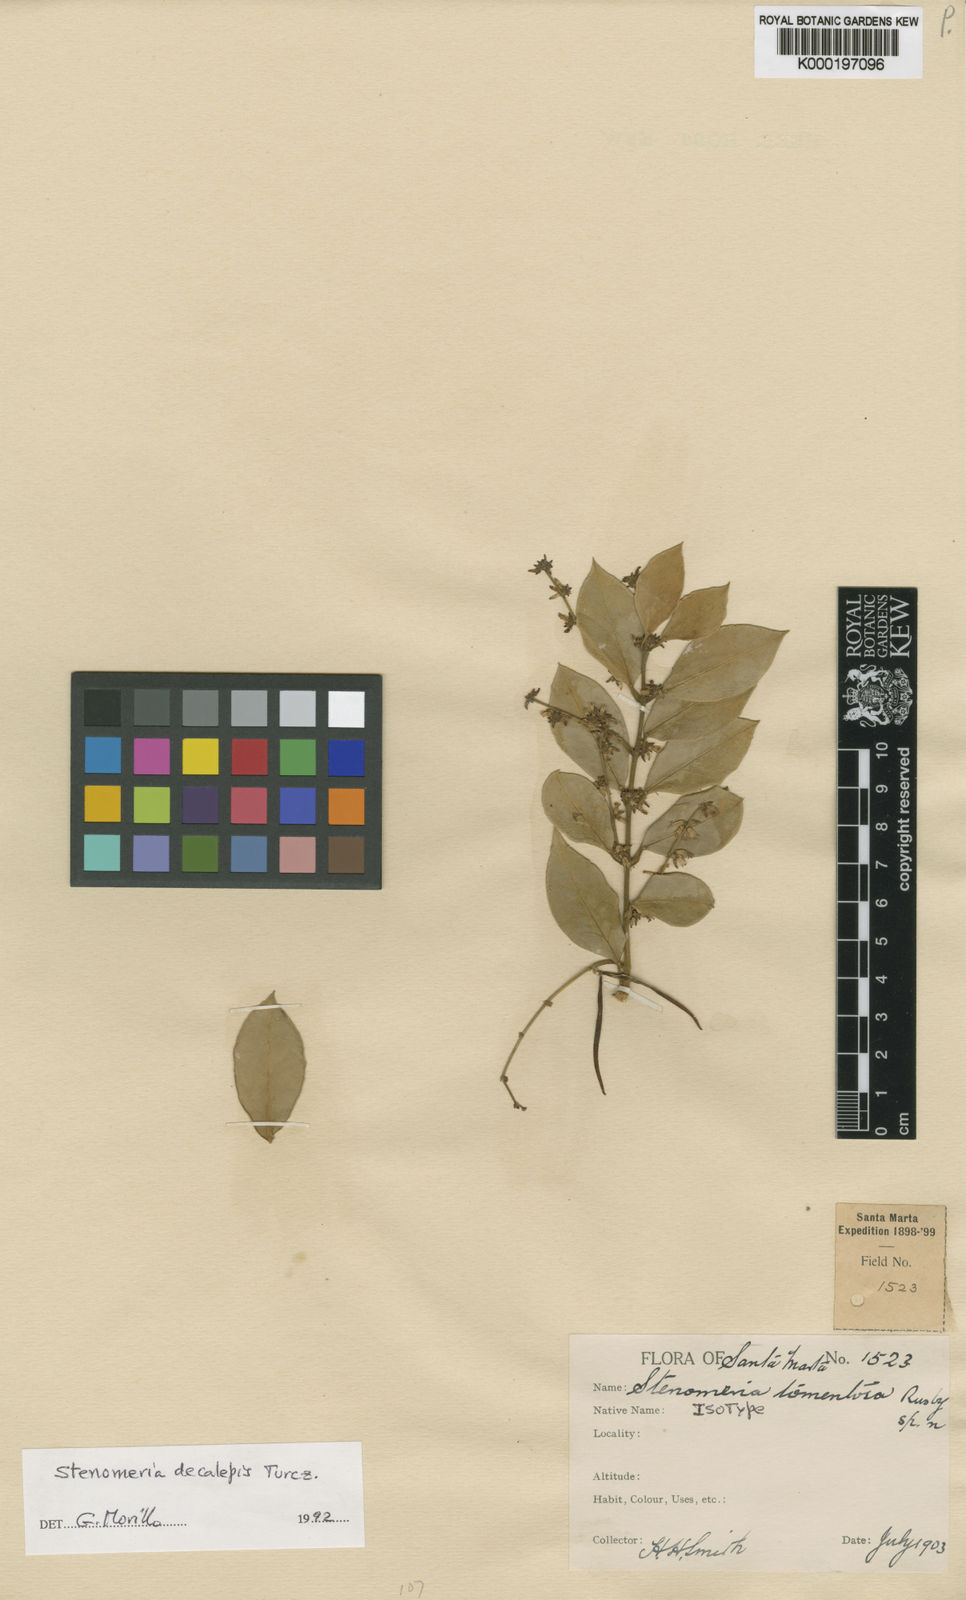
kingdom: Plantae
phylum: Tracheophyta
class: Magnoliopsida
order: Gentianales
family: Apocynaceae
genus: Tassadia
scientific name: Tassadia decalepis
